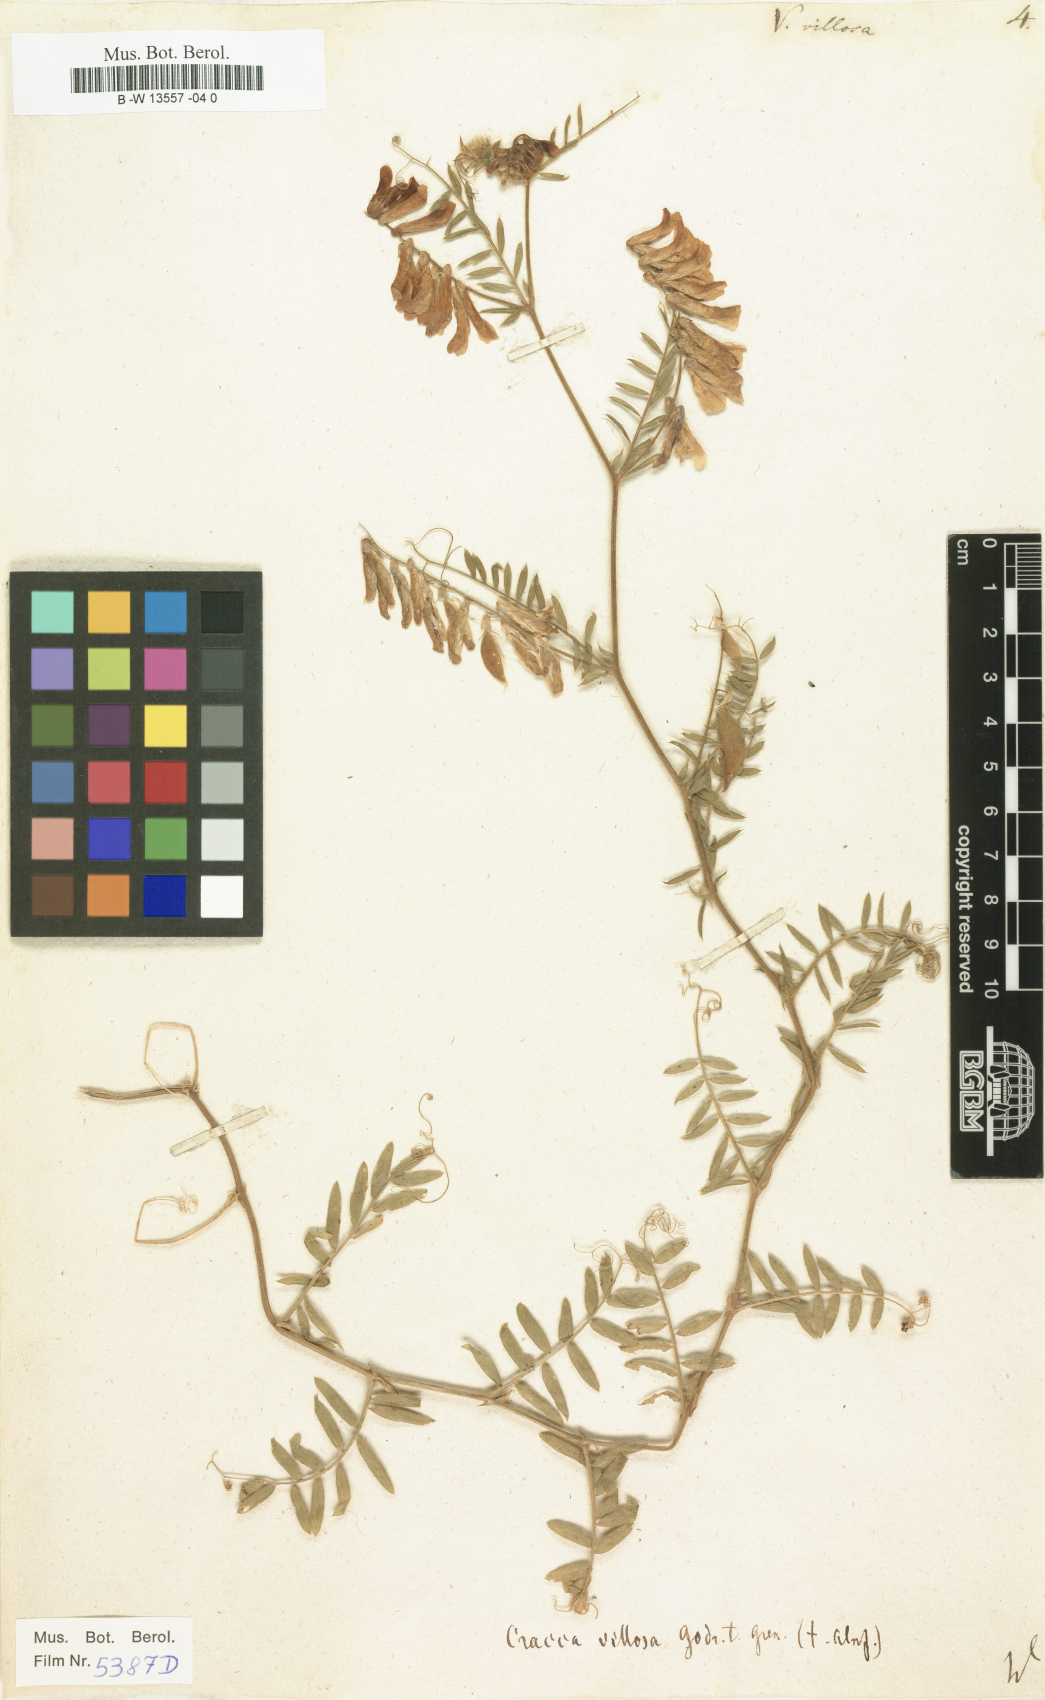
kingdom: Plantae
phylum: Tracheophyta
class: Magnoliopsida
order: Fabales
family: Fabaceae
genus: Vicia
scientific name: Vicia villosa
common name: Fodder vetch
